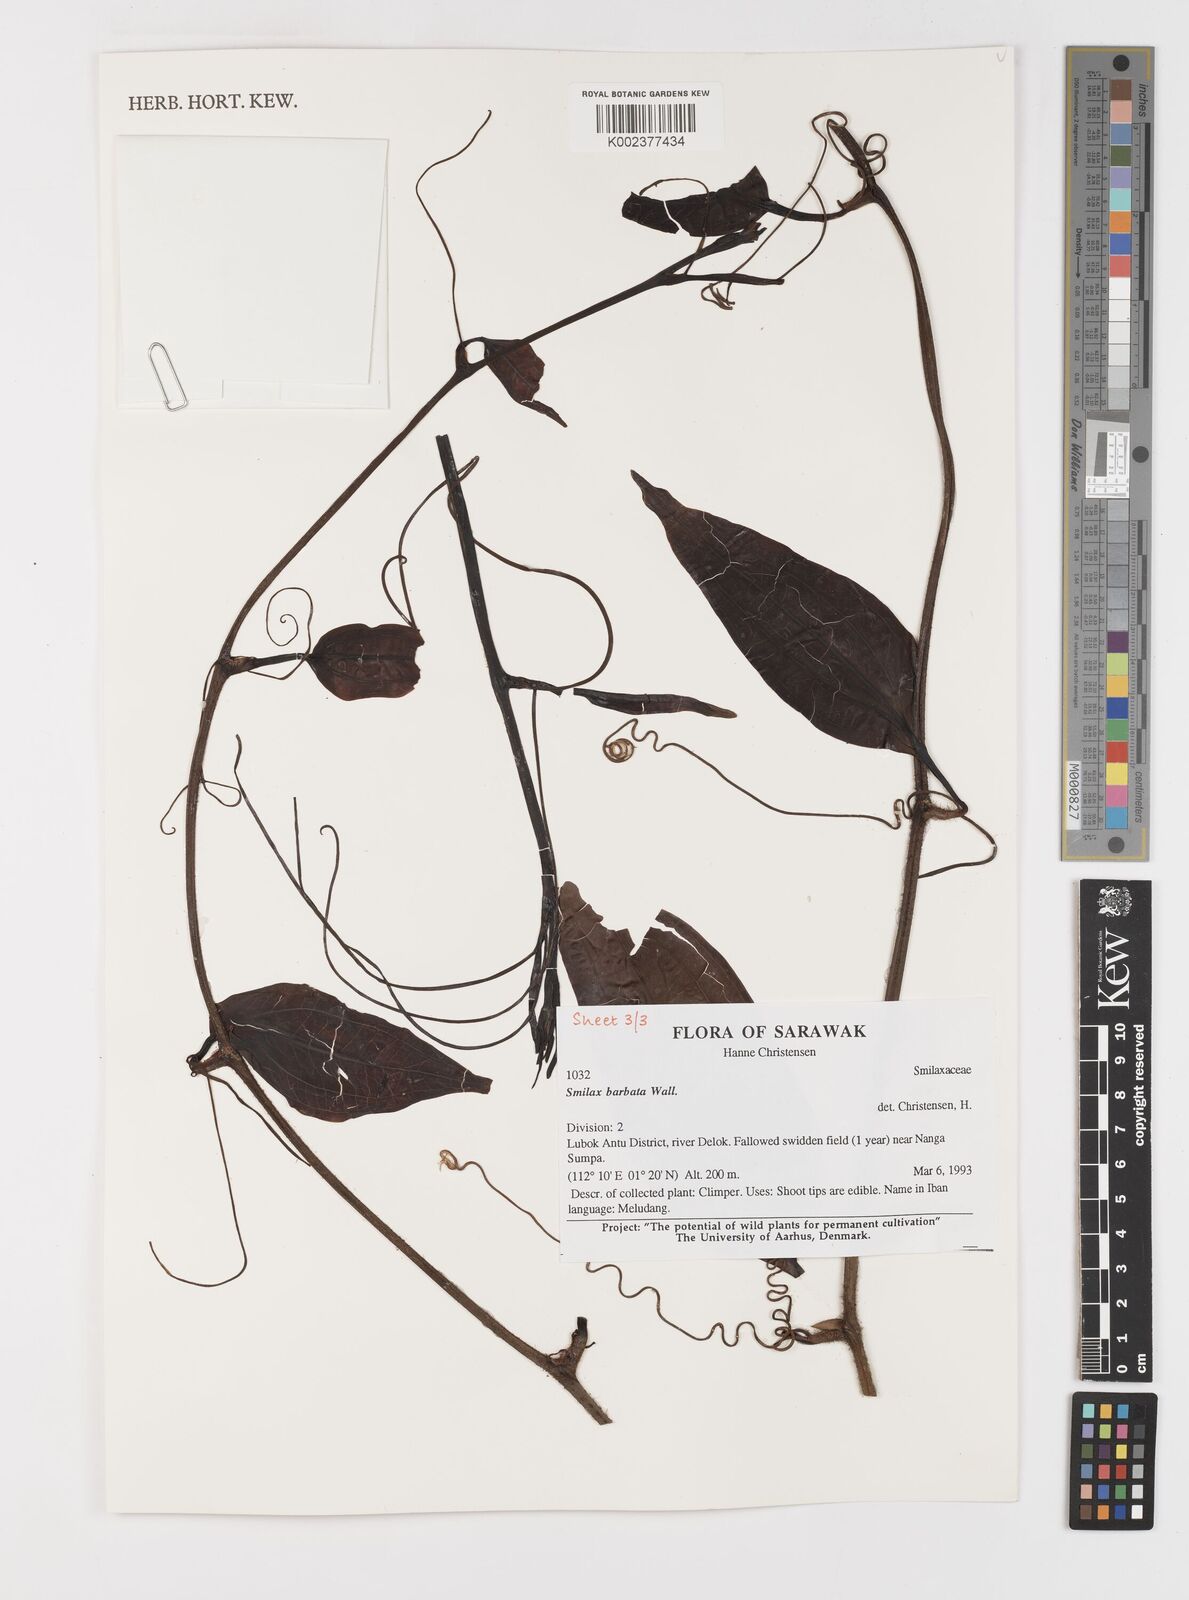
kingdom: Plantae
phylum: Tracheophyta
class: Liliopsida
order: Liliales
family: Smilacaceae
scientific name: Smilacaceae
